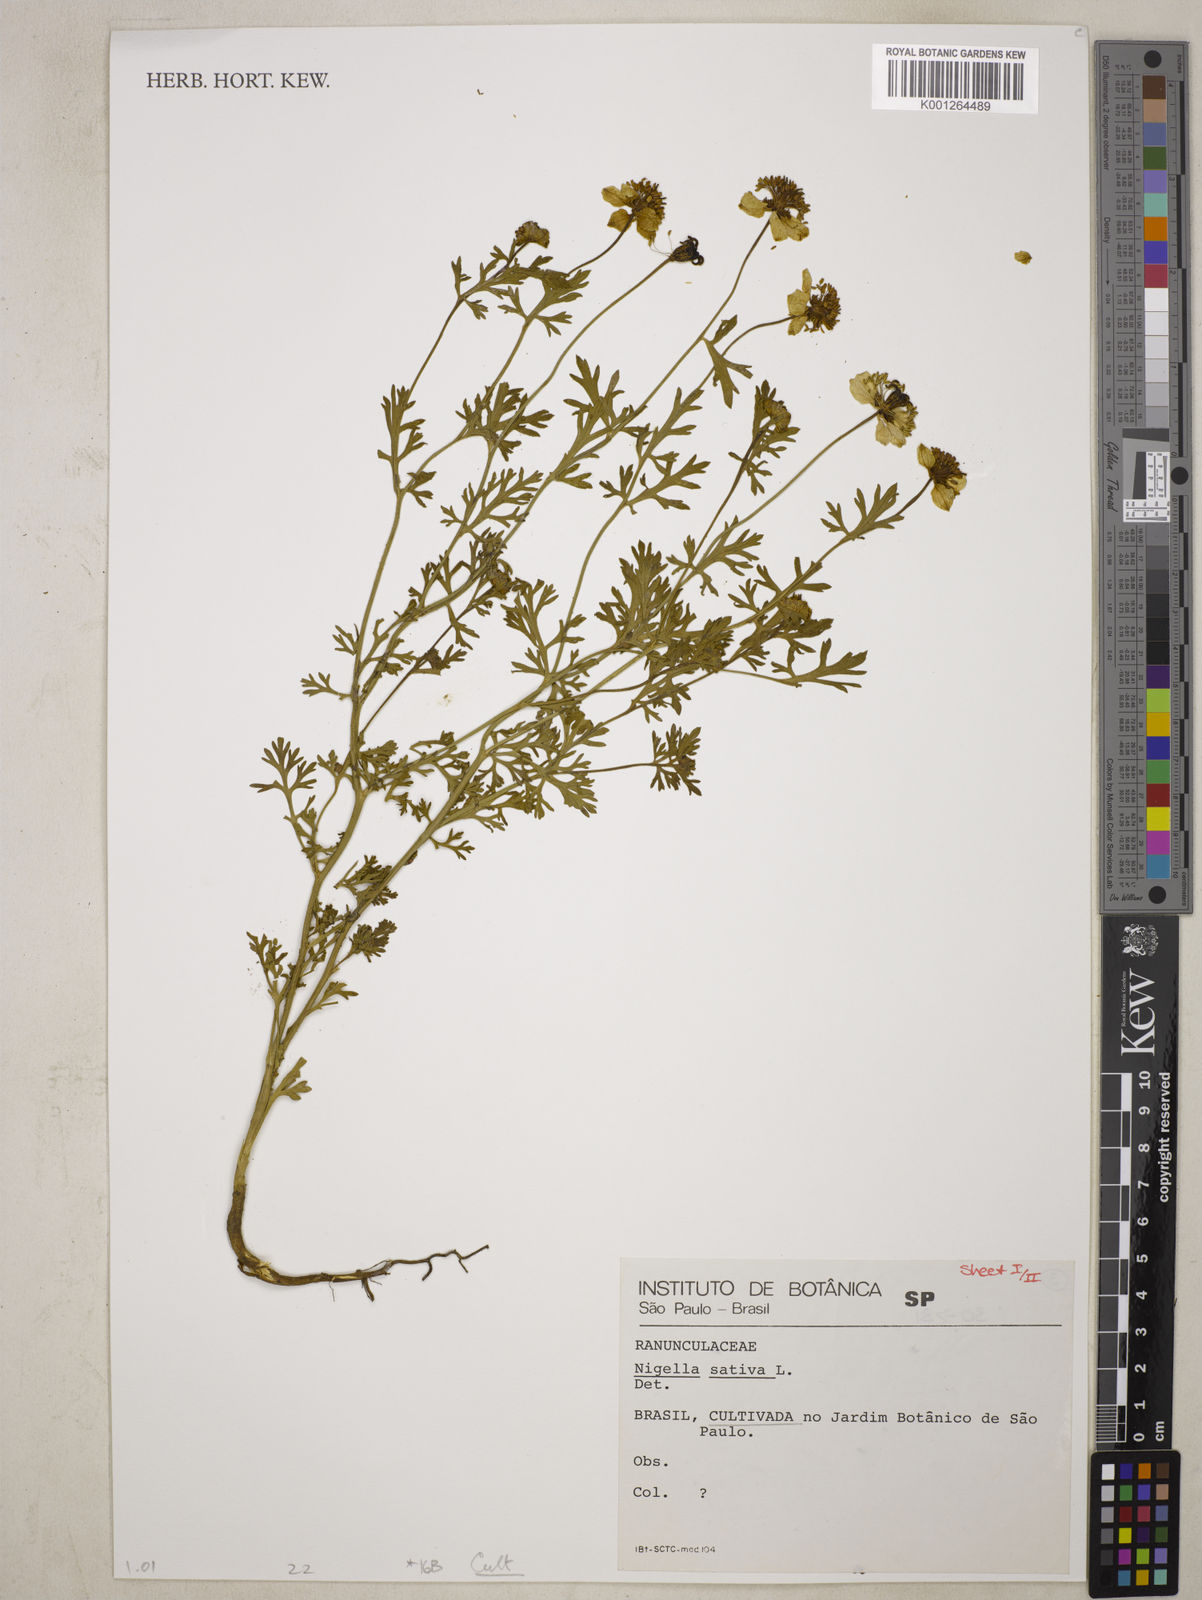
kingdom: Plantae
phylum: Tracheophyta
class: Magnoliopsida
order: Ranunculales
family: Ranunculaceae
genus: Nigella
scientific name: Nigella sativa
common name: Black-cumin
